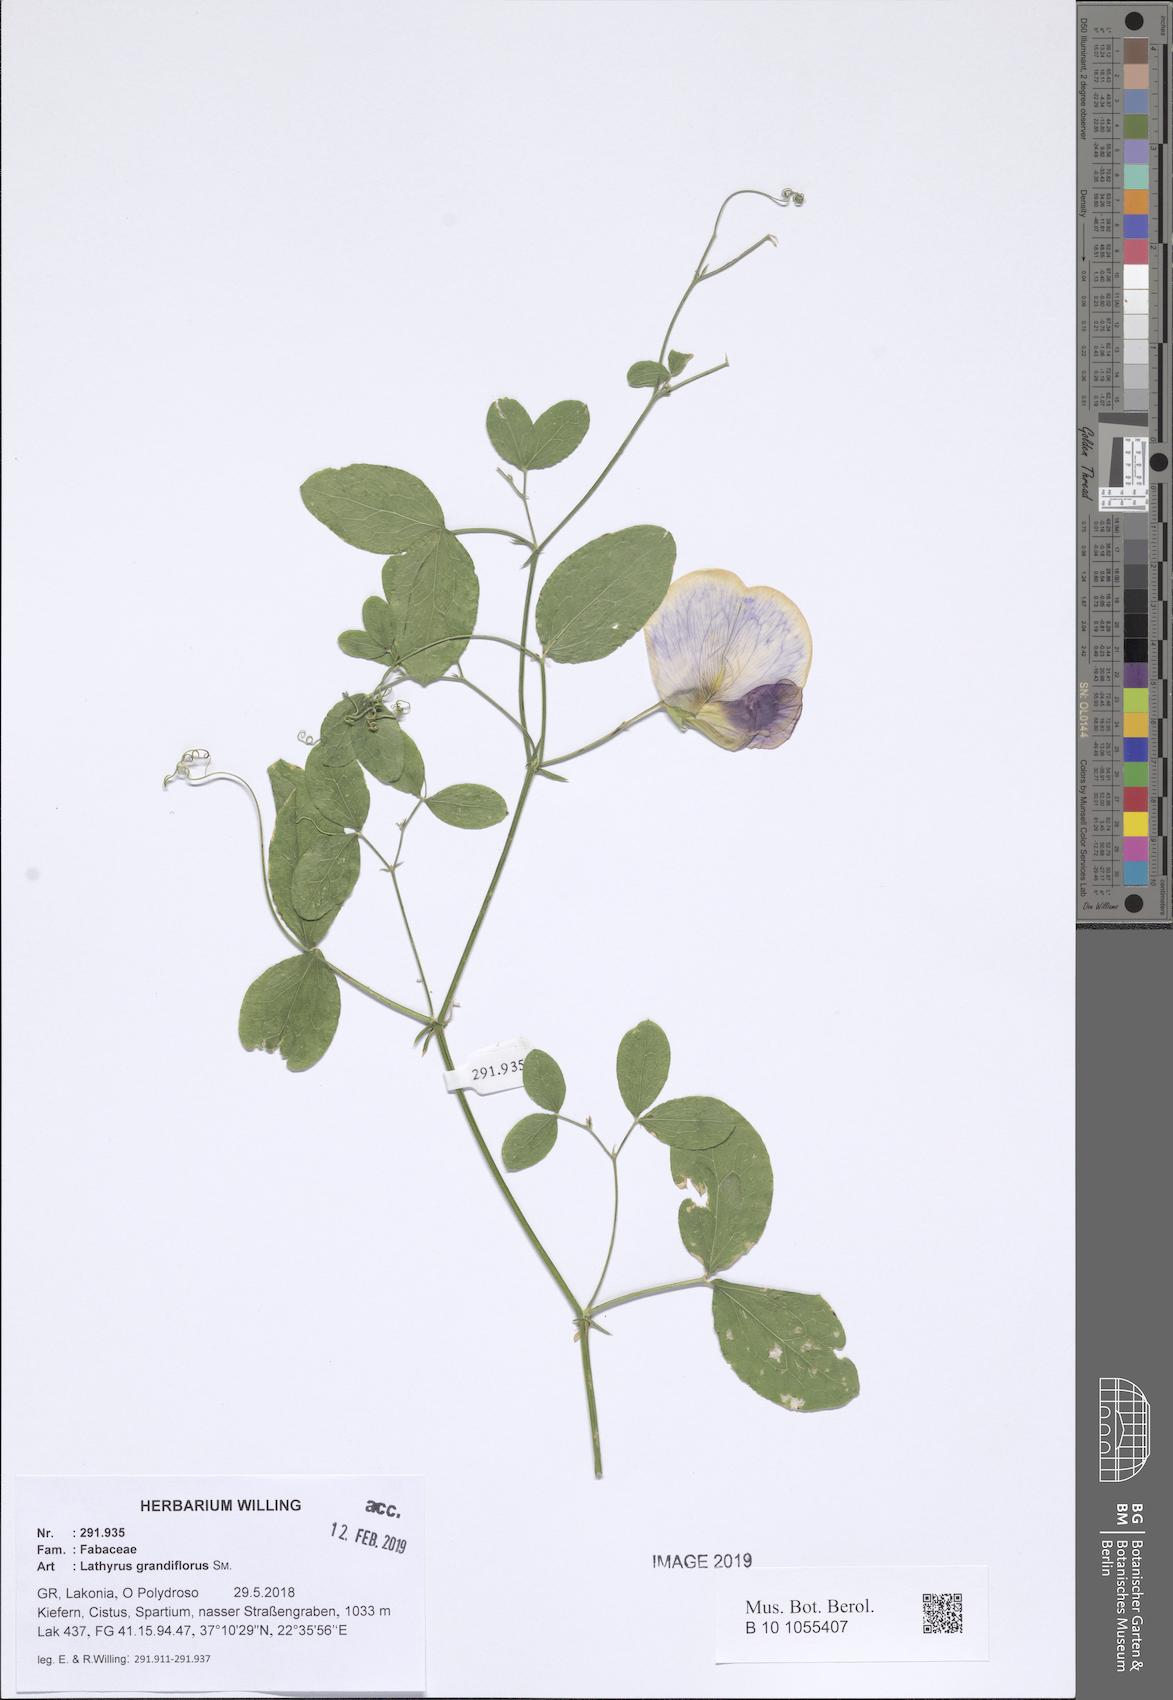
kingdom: Plantae
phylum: Tracheophyta
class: Magnoliopsida
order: Fabales
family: Fabaceae
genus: Lathyrus
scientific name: Lathyrus grandiflorus
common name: Two-flowered everlasting-pea
